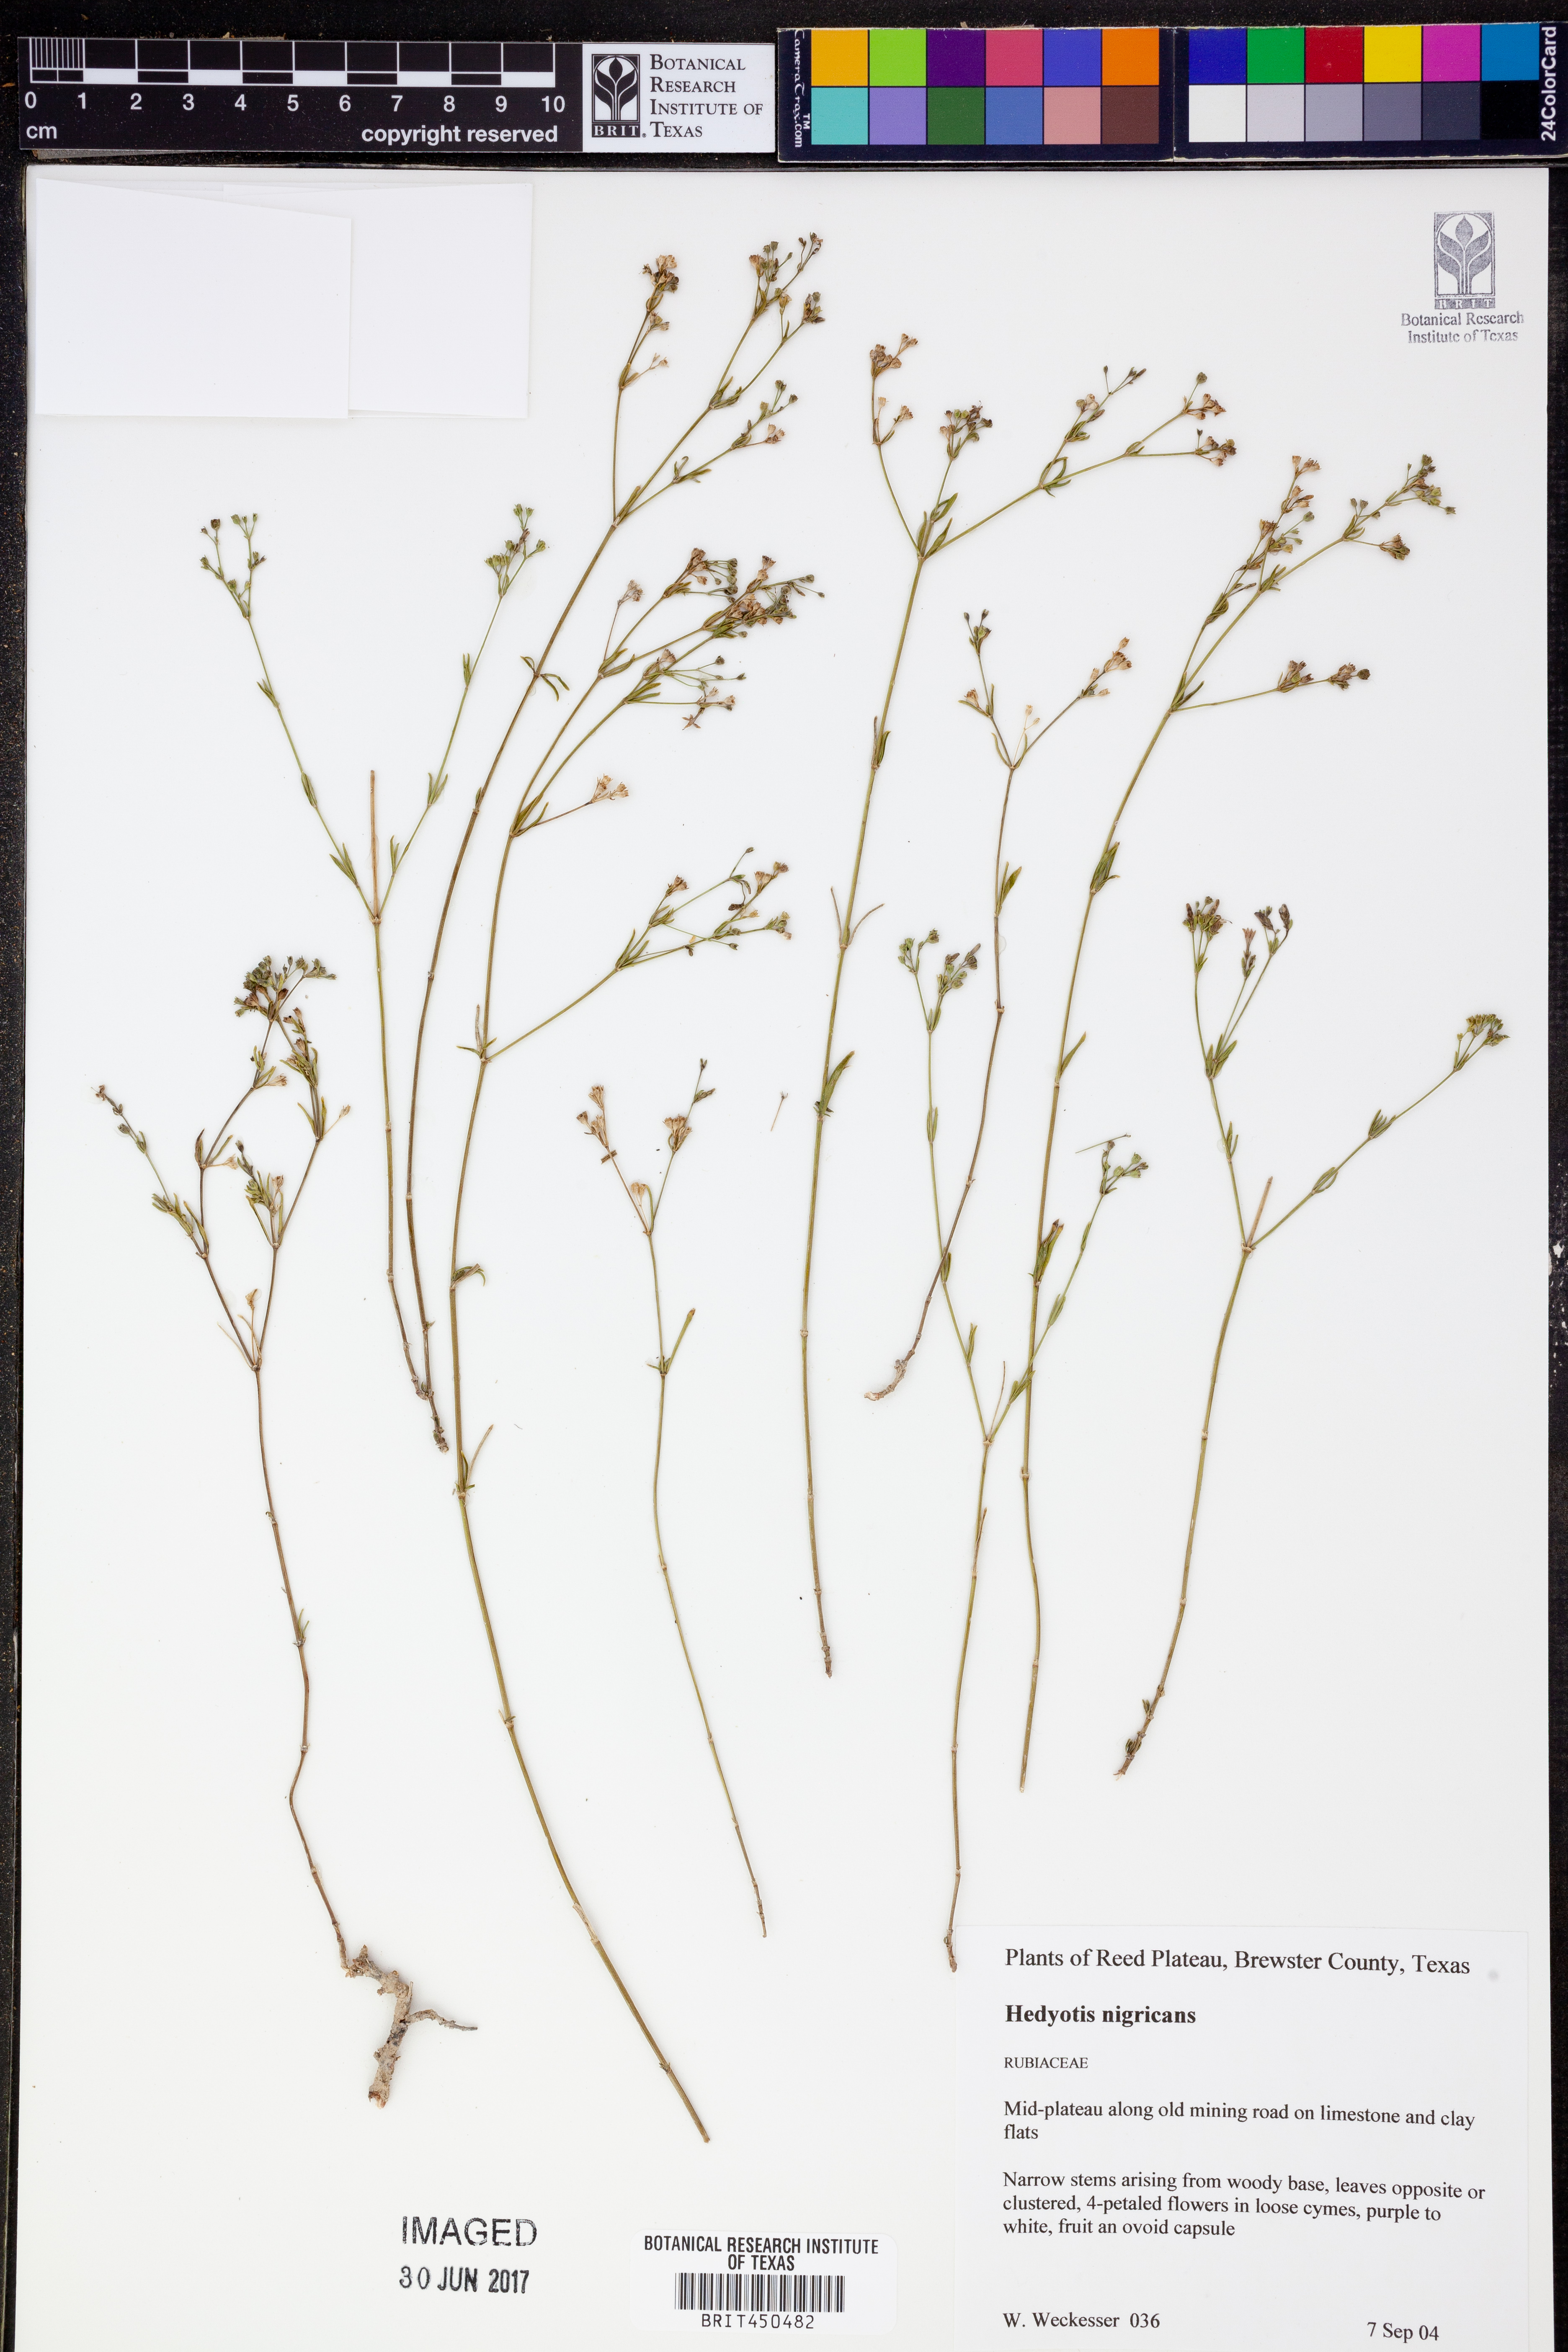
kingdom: Plantae
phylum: Tracheophyta
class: Magnoliopsida
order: Gentianales
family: Rubiaceae
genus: Stenaria
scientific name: Stenaria nigricans
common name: Diamondflowers
